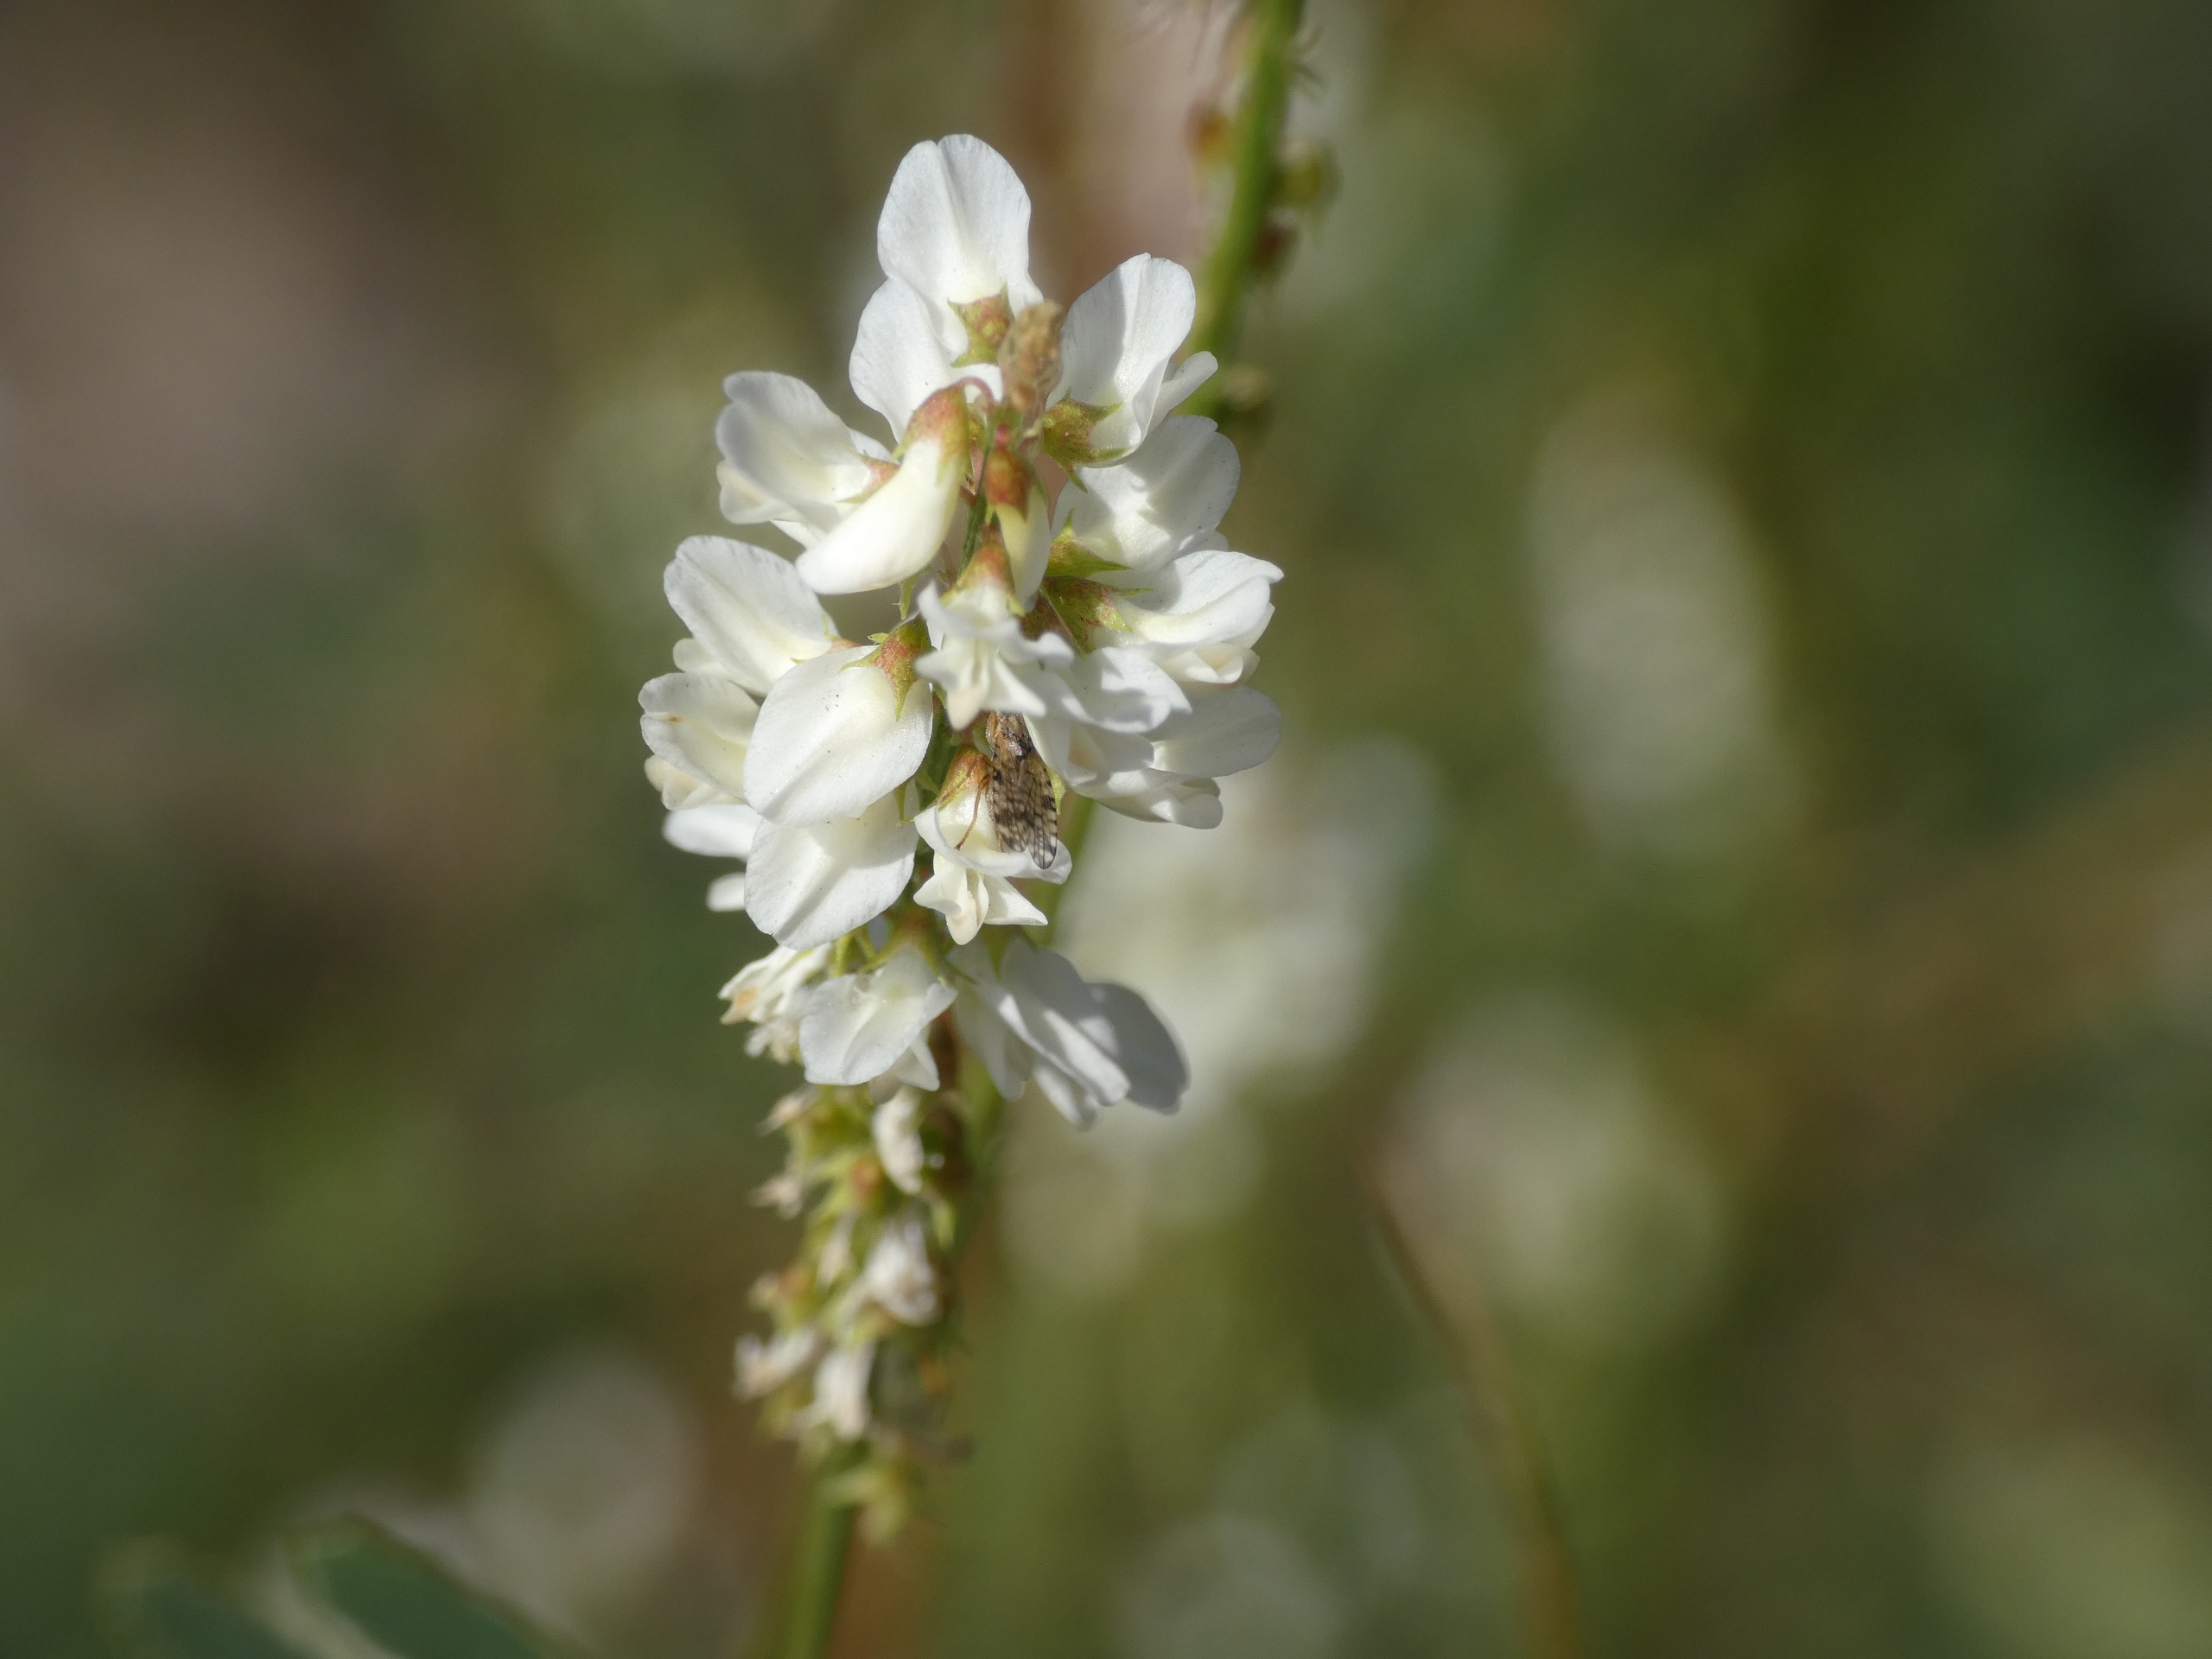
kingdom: Plantae
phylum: Tracheophyta
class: Magnoliopsida
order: Fabales
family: Fabaceae
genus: Melilotus
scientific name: Melilotus albus
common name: Hvid stenkløver
